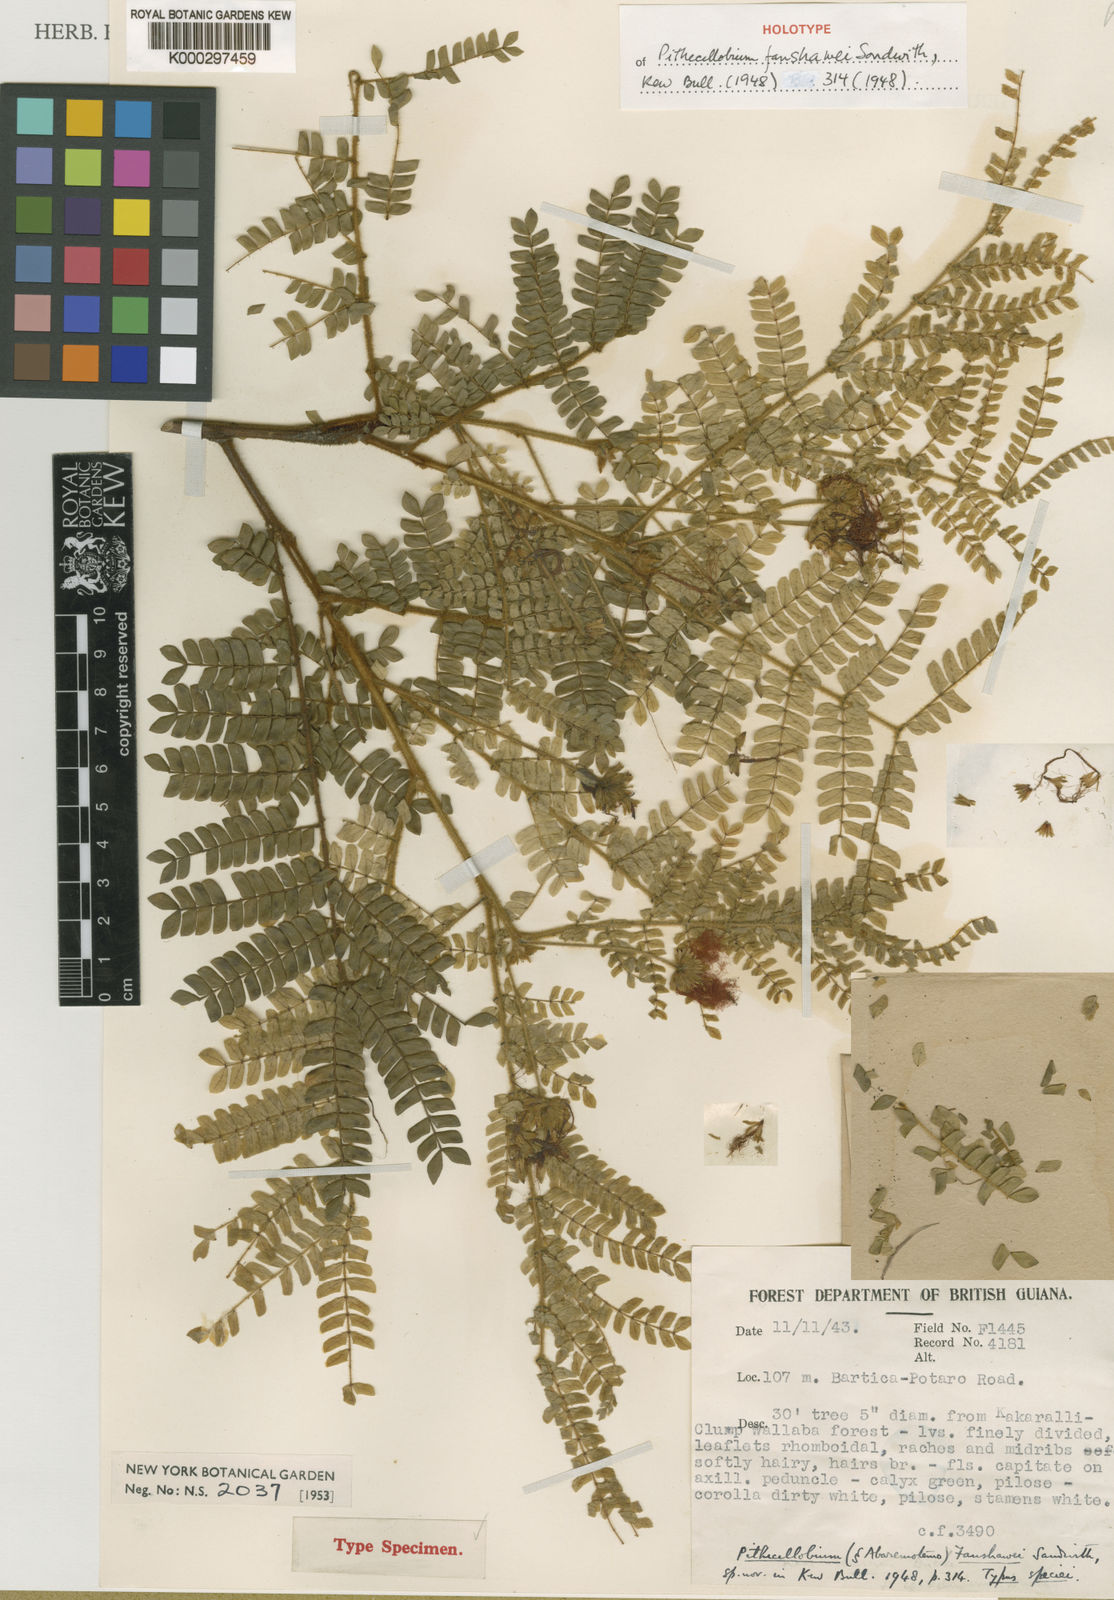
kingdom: Plantae
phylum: Tracheophyta
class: Magnoliopsida
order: Fabales
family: Fabaceae
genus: Jupunba
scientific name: Jupunba barbouriana
